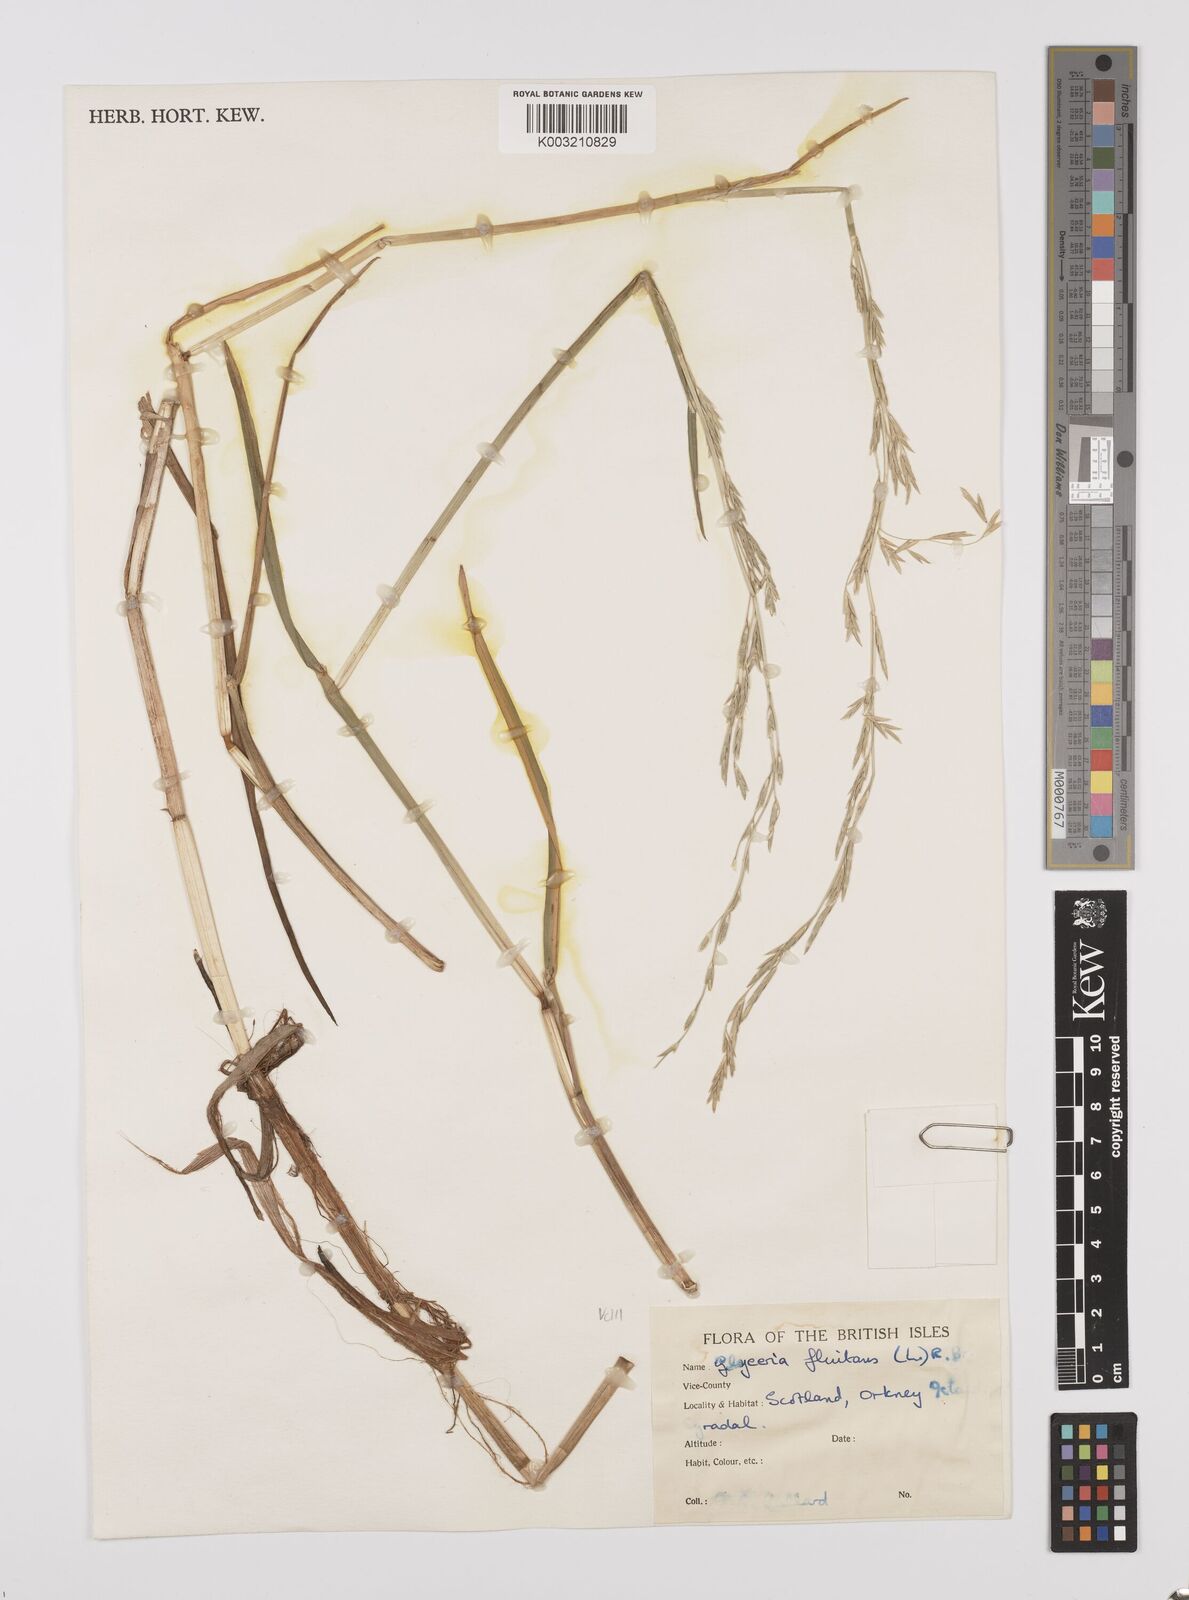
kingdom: Plantae
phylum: Tracheophyta
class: Liliopsida
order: Poales
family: Poaceae
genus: Glyceria
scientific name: Glyceria fluitans
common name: Floating sweet-grass
